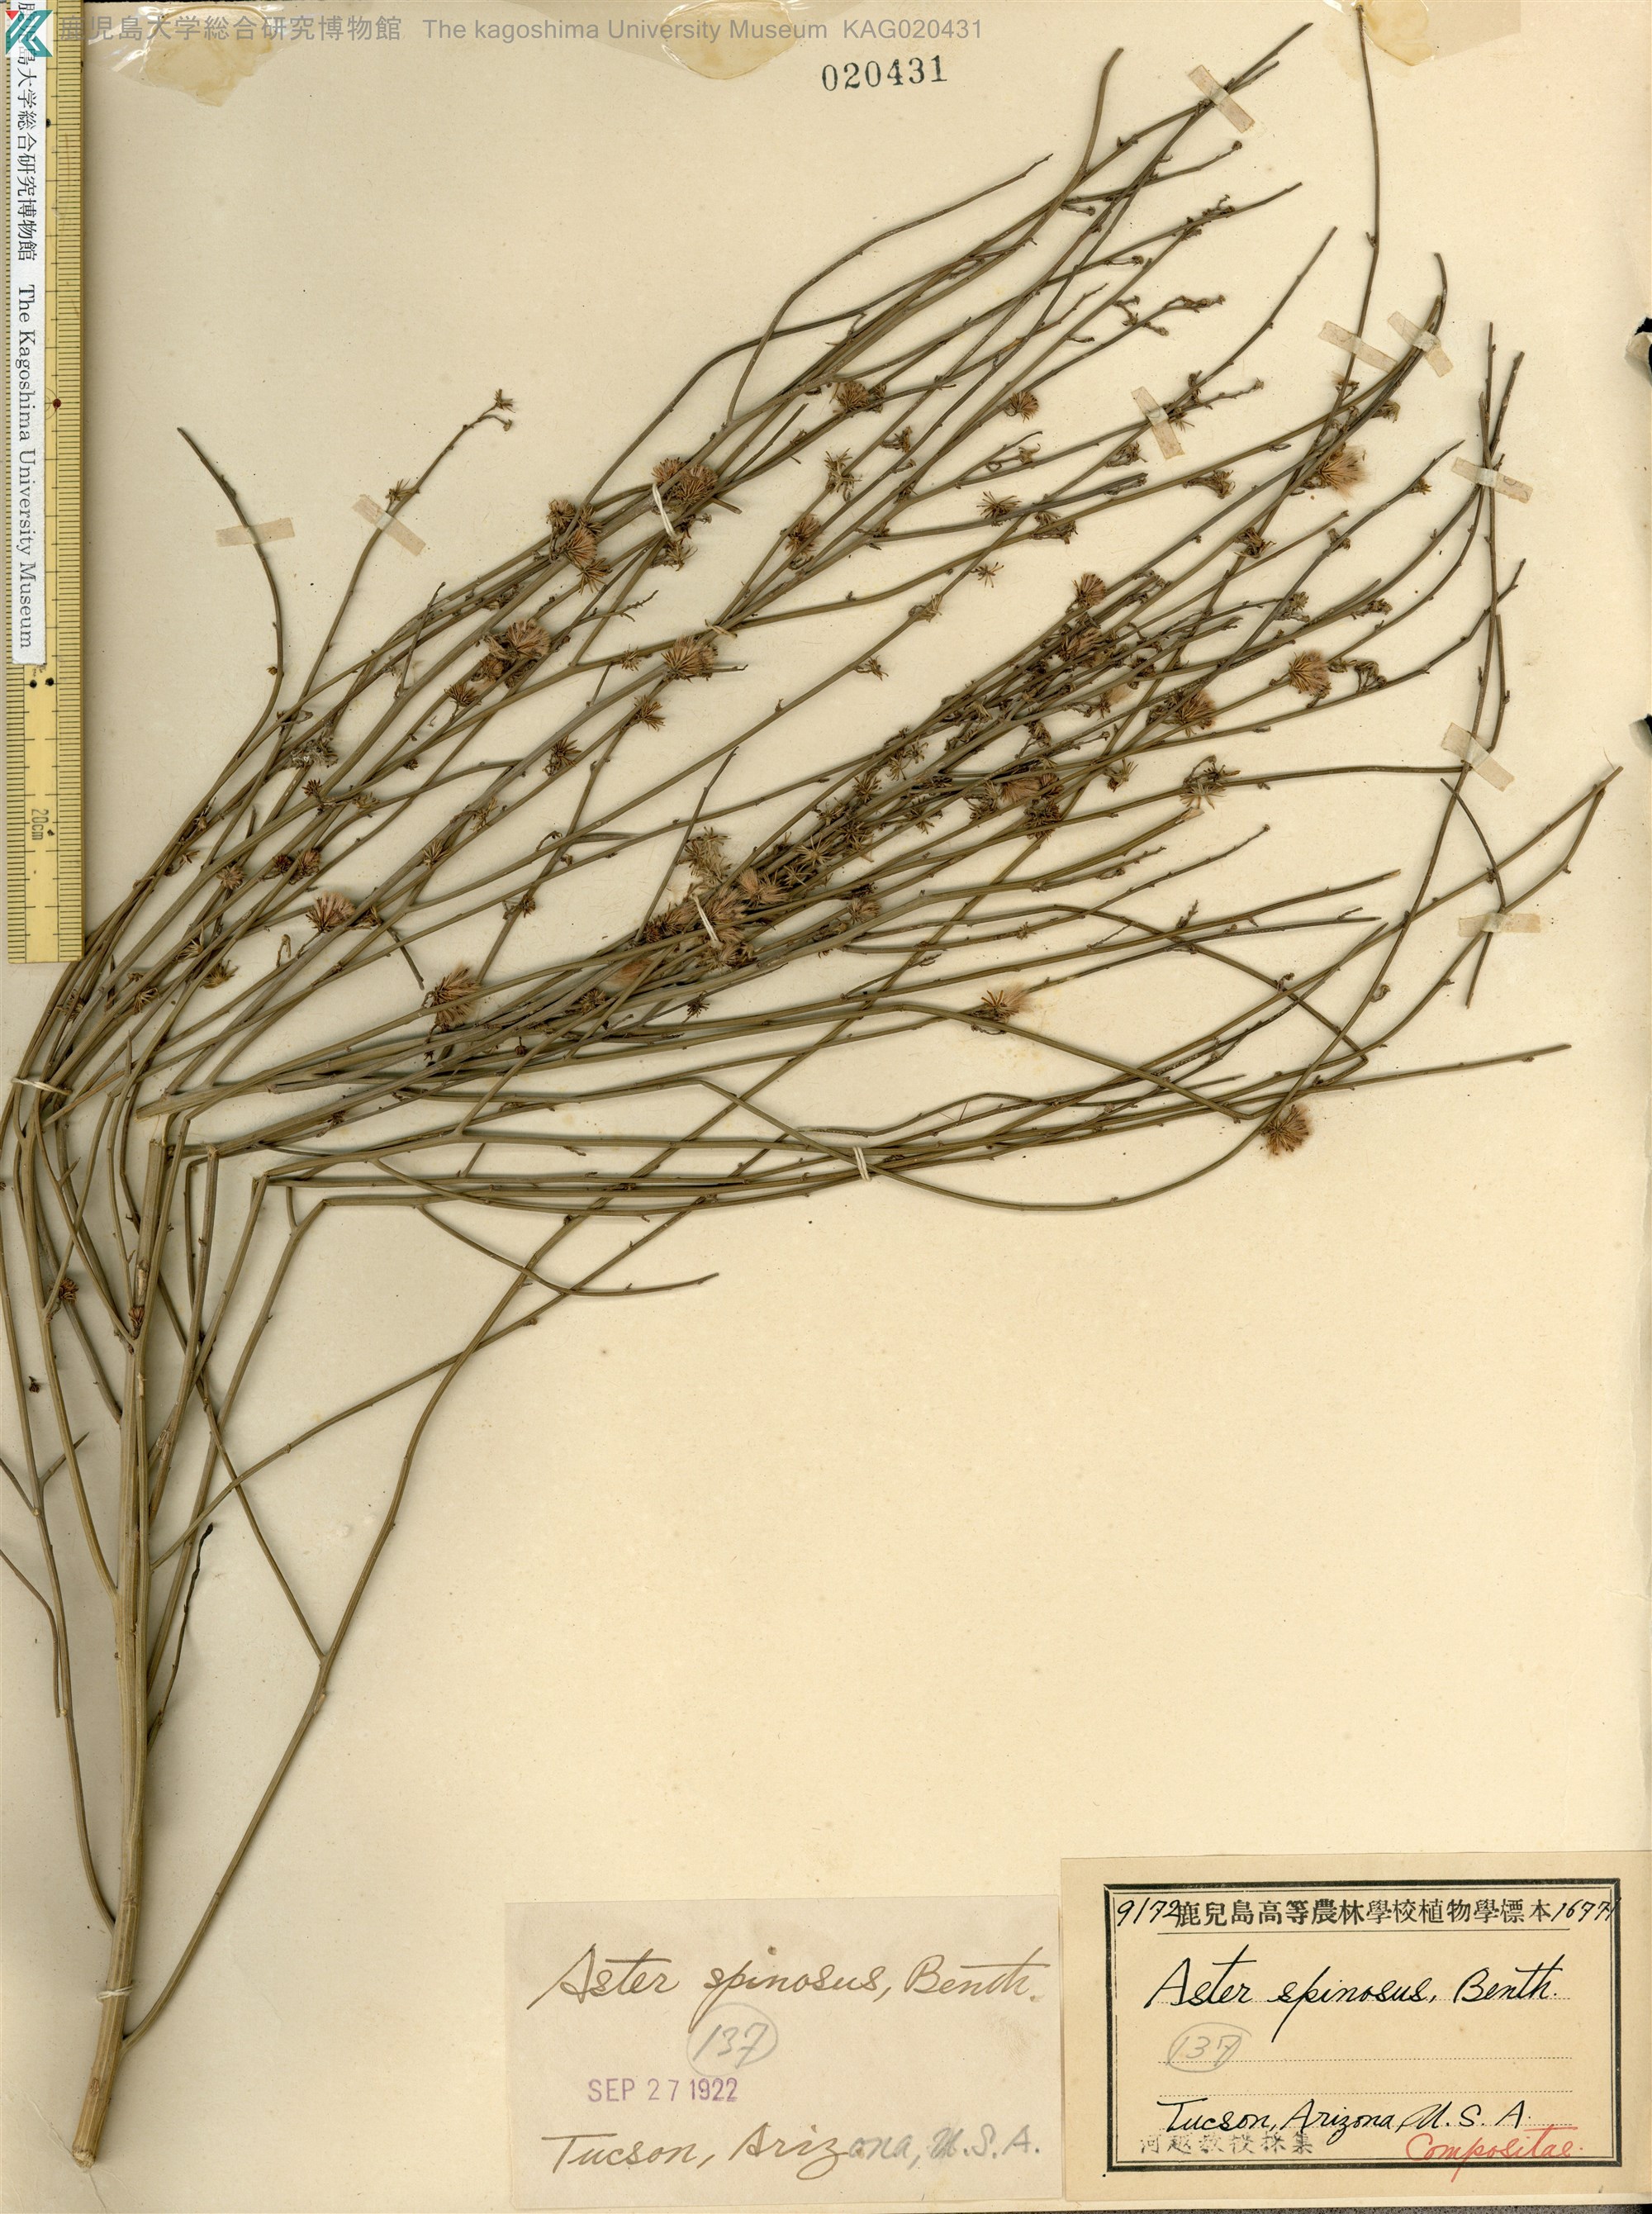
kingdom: Plantae
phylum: Tracheophyta
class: Magnoliopsida
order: Asterales
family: Asteraceae
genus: Chloracantha
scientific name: Chloracantha spinosa
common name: Mexican devilweed
